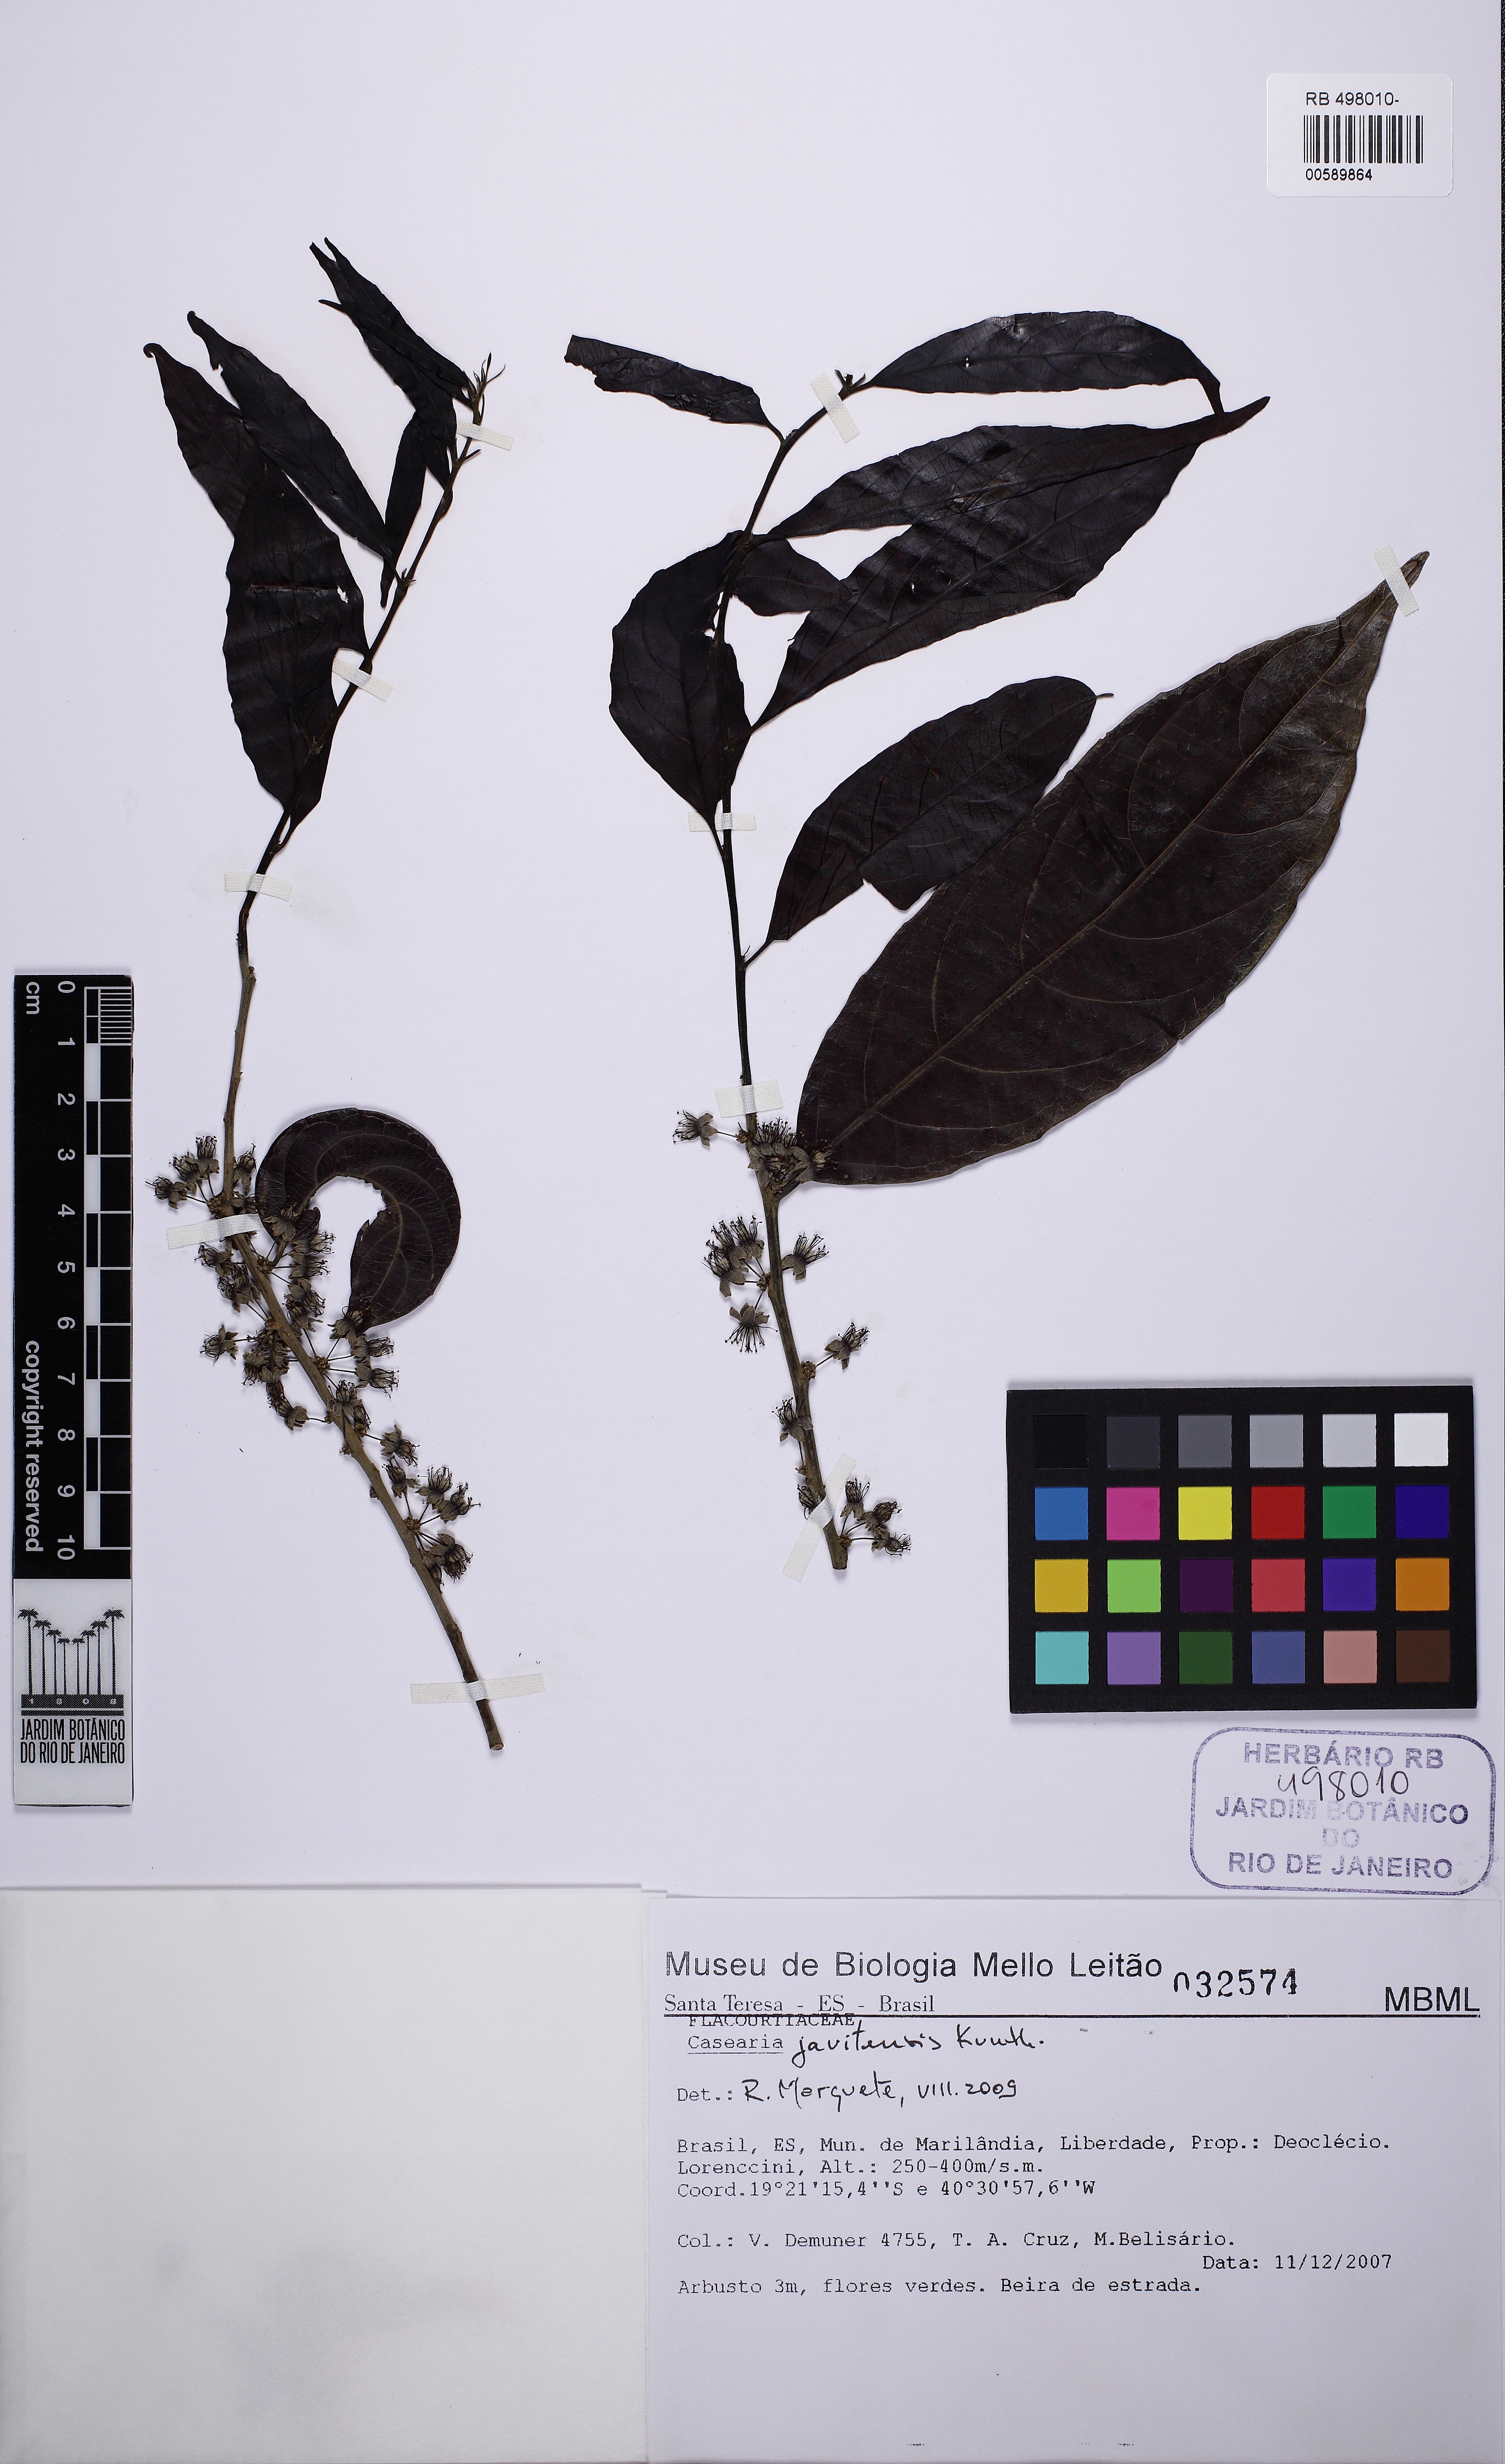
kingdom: Plantae
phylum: Tracheophyta
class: Magnoliopsida
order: Malpighiales
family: Salicaceae
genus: Piparea
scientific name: Piparea multiflora
